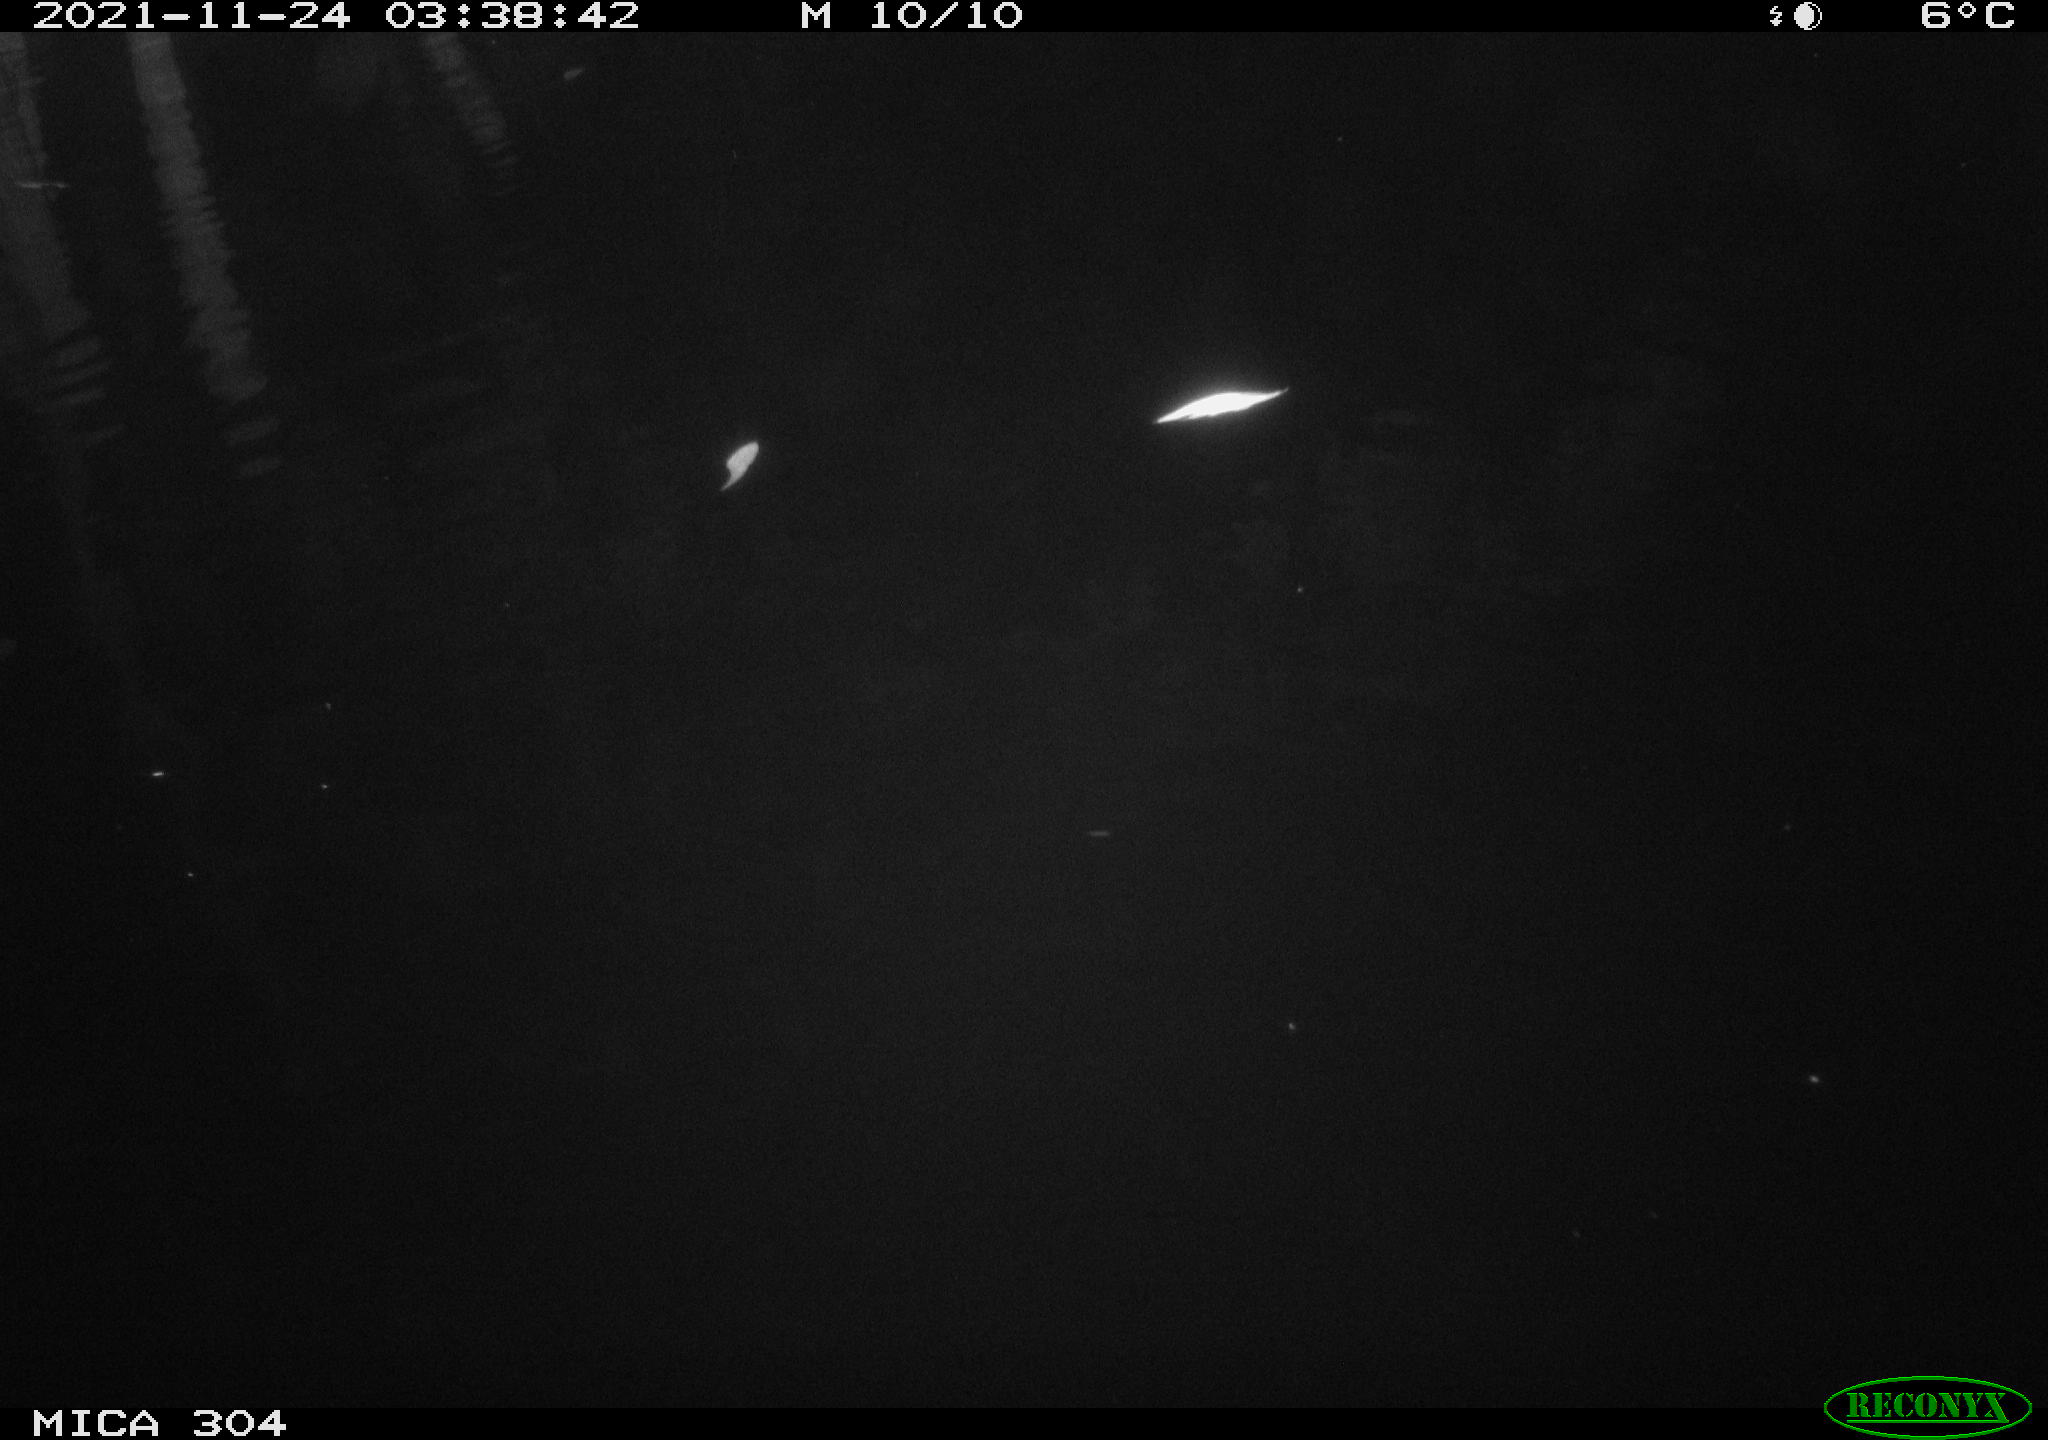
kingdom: Animalia
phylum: Chordata
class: Aves
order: Anseriformes
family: Anatidae
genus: Anas
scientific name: Anas platyrhynchos
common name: Mallard
